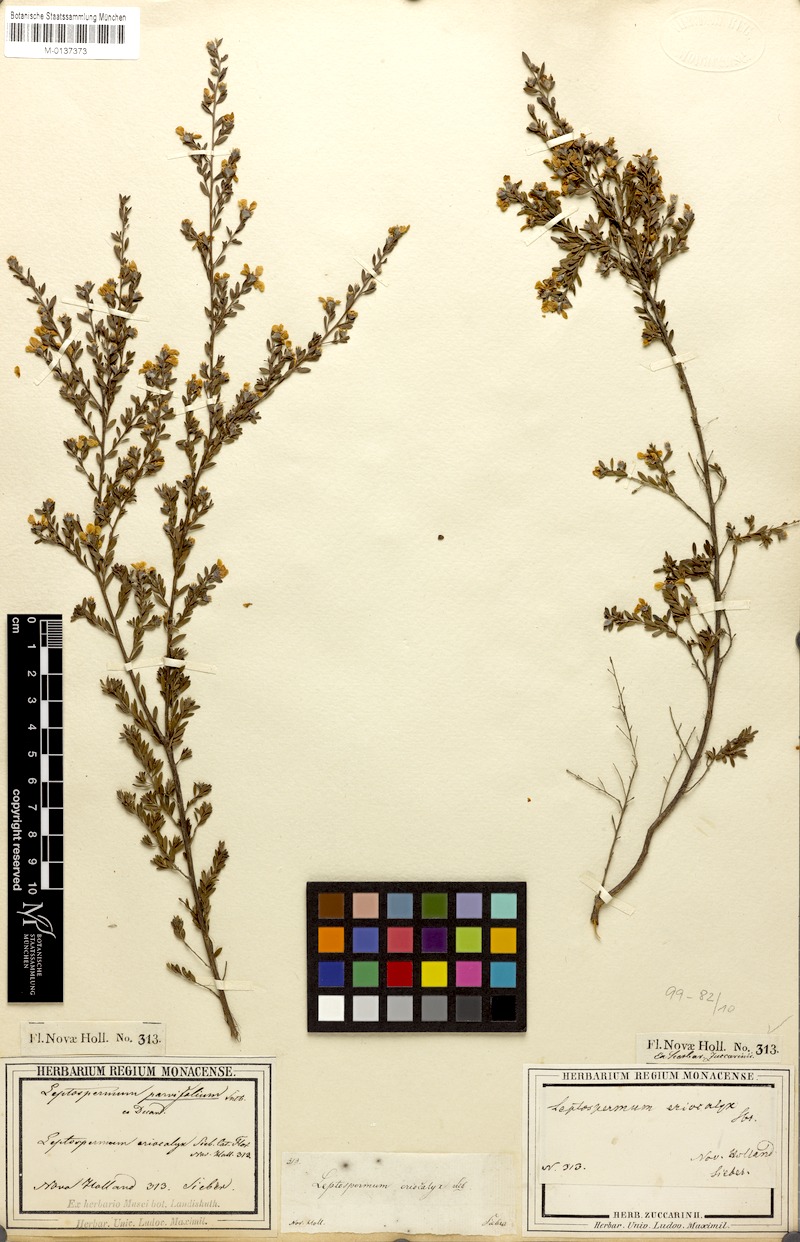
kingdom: Plantae
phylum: Tracheophyta
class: Magnoliopsida
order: Myrtales
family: Myrtaceae
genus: Leptospermum
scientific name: Leptospermum parvifolium
